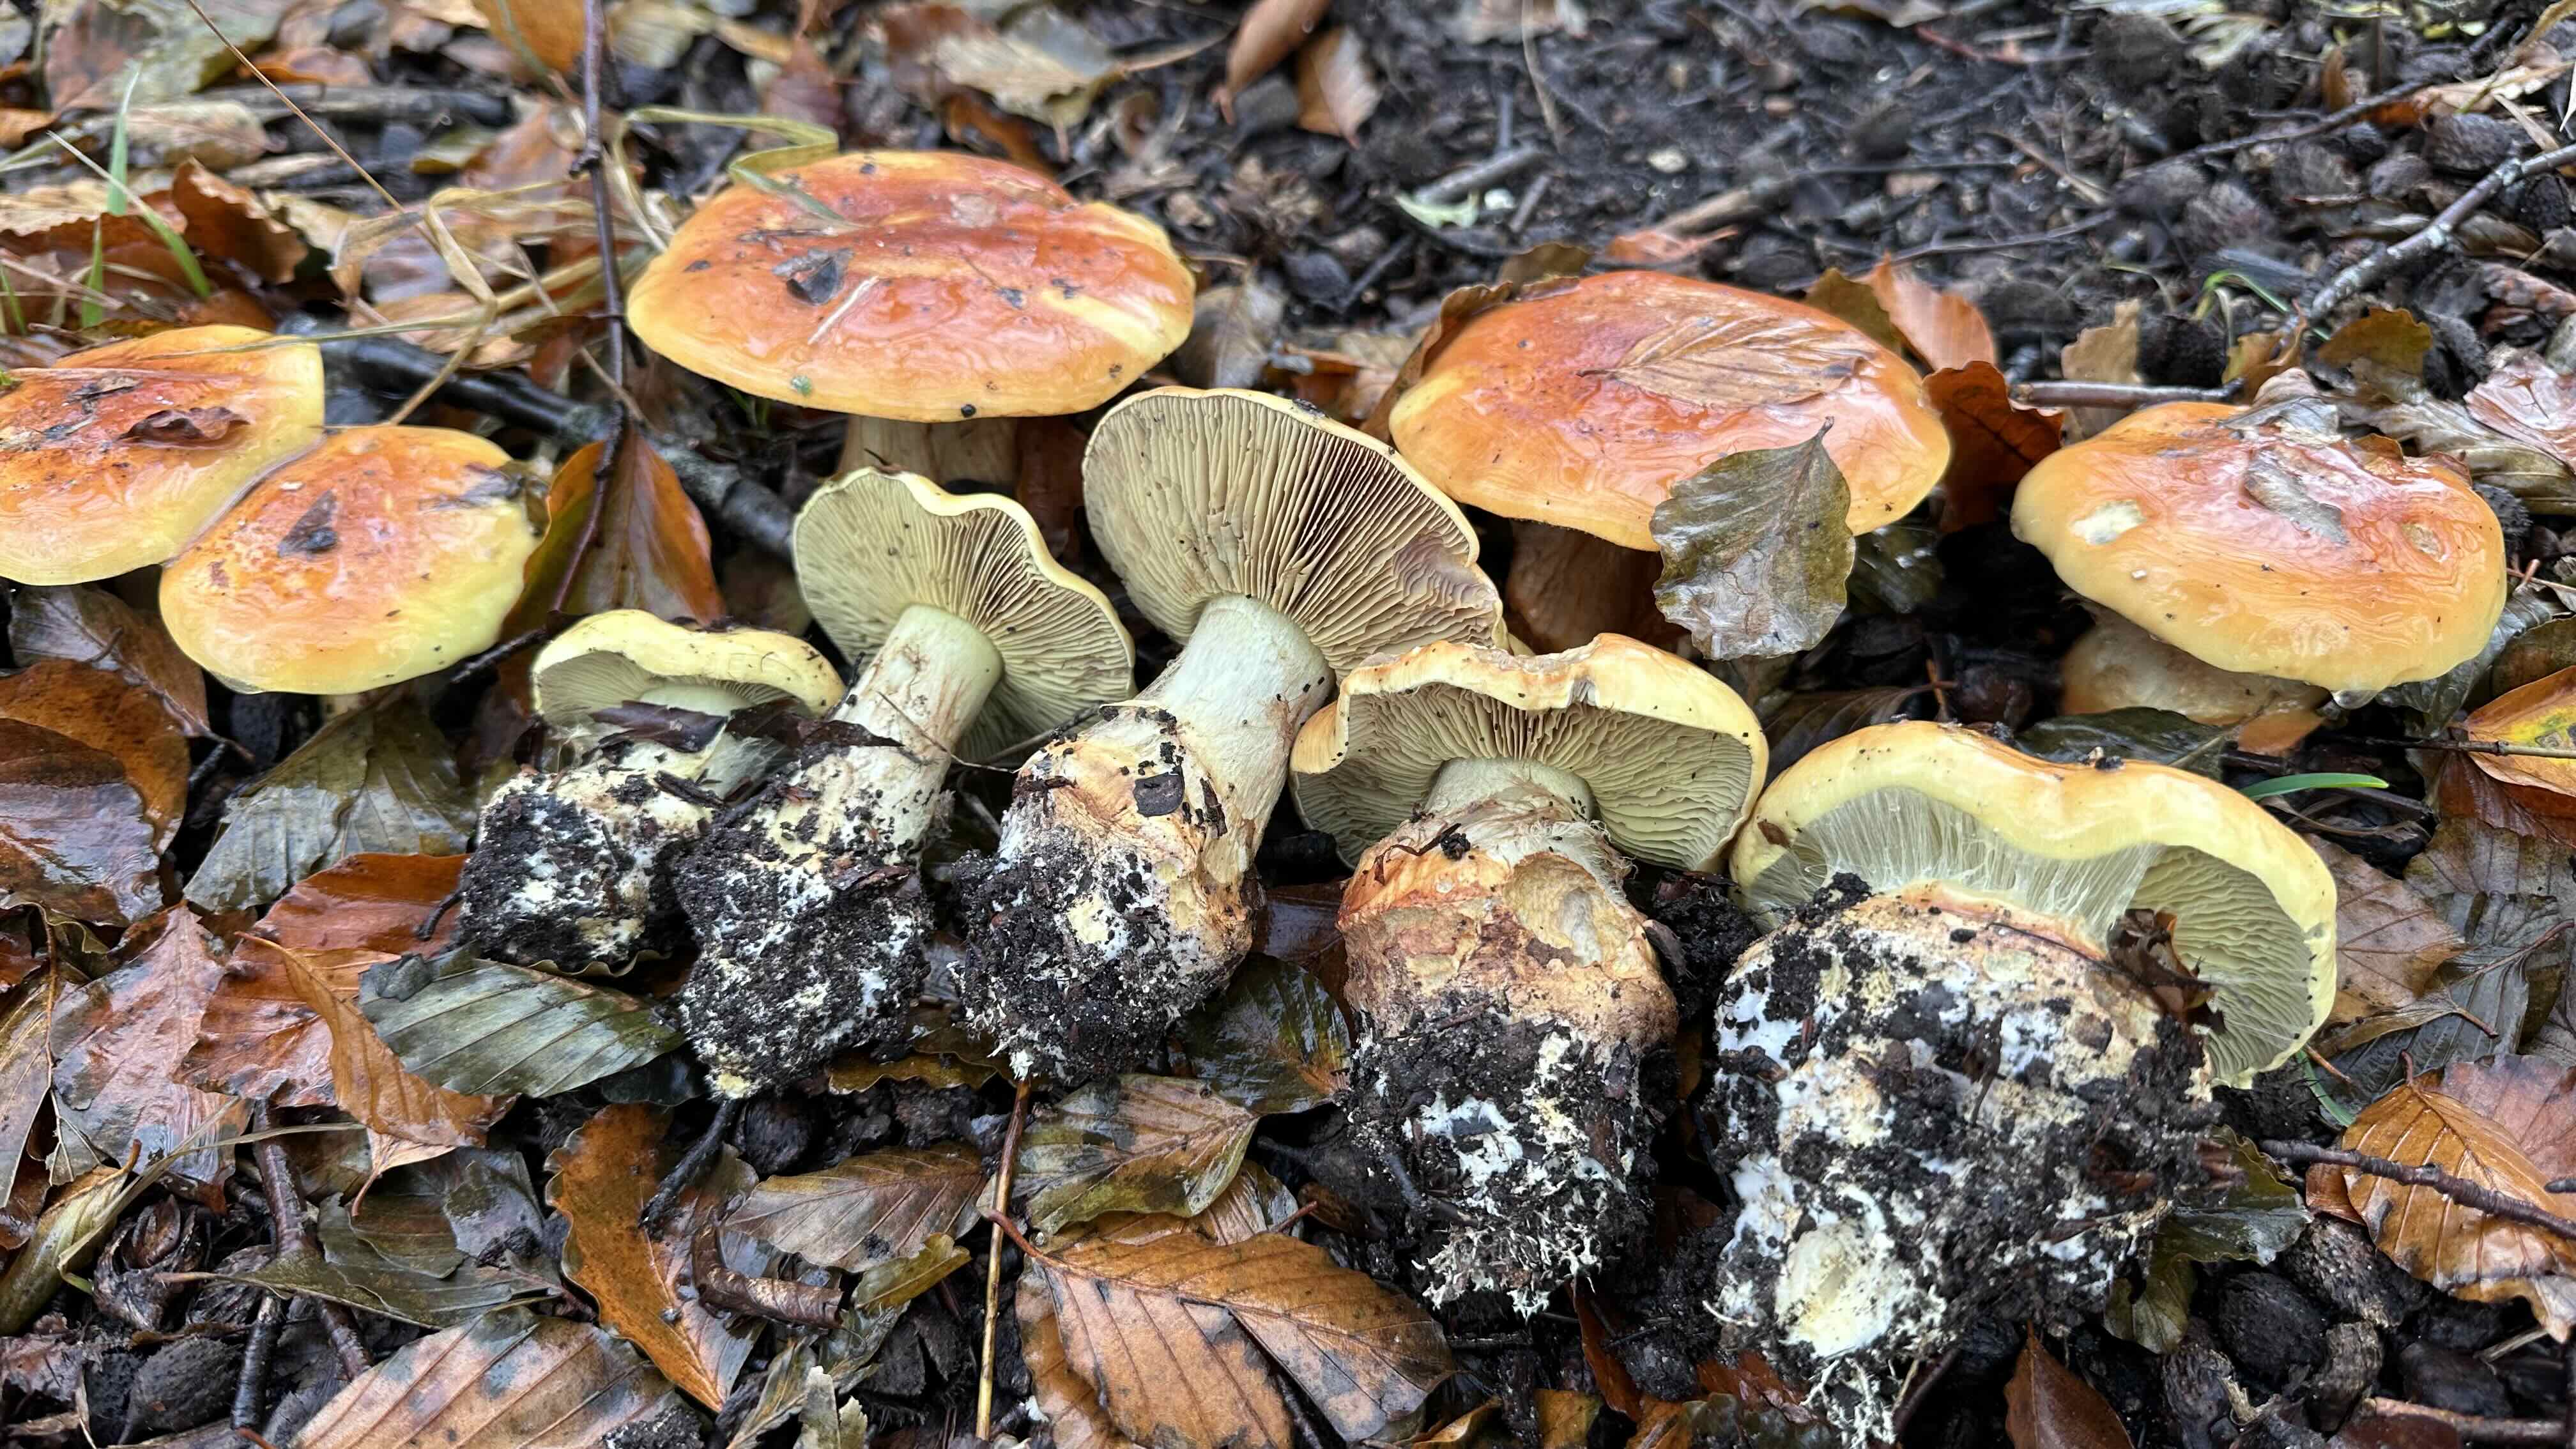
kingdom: Fungi
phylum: Basidiomycota
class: Agaricomycetes
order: Agaricales
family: Cortinariaceae
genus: Calonarius
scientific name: Calonarius elegantissimus
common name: orangegylden slørhat
